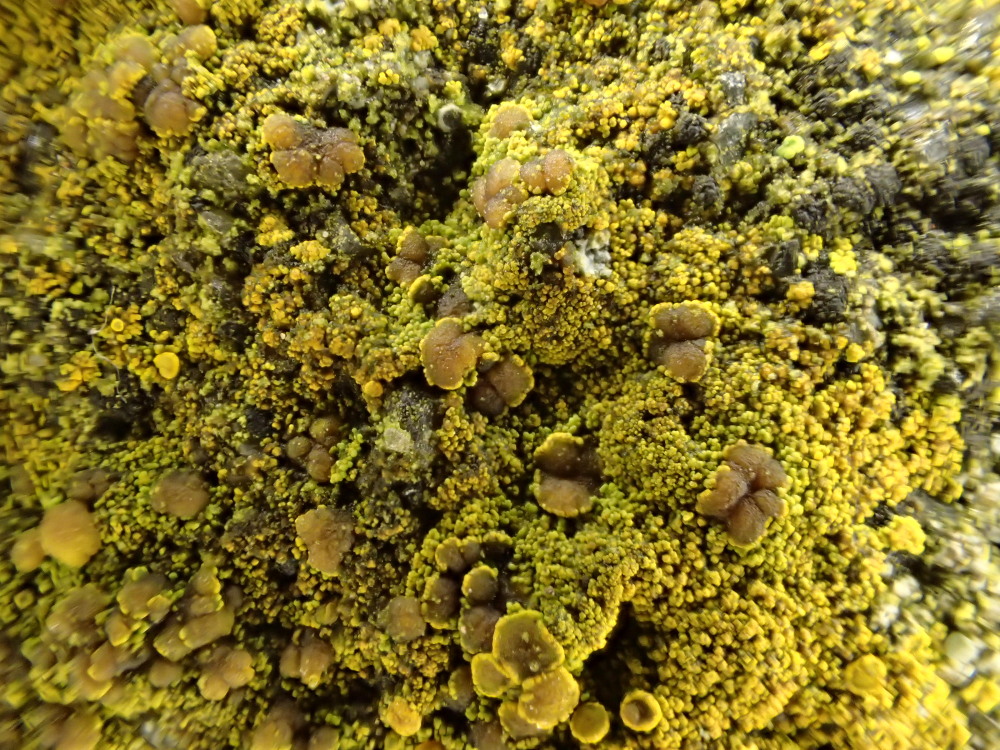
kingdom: Fungi
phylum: Ascomycota
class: Candelariomycetes
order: Candelariales
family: Candelariaceae
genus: Candelariella
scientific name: Candelariella vitellina
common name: almindelig æggeblommelav
